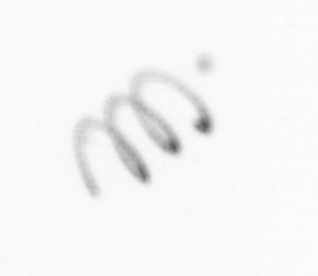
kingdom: Chromista
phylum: Ochrophyta
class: Bacillariophyceae
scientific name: Bacillariophyceae
